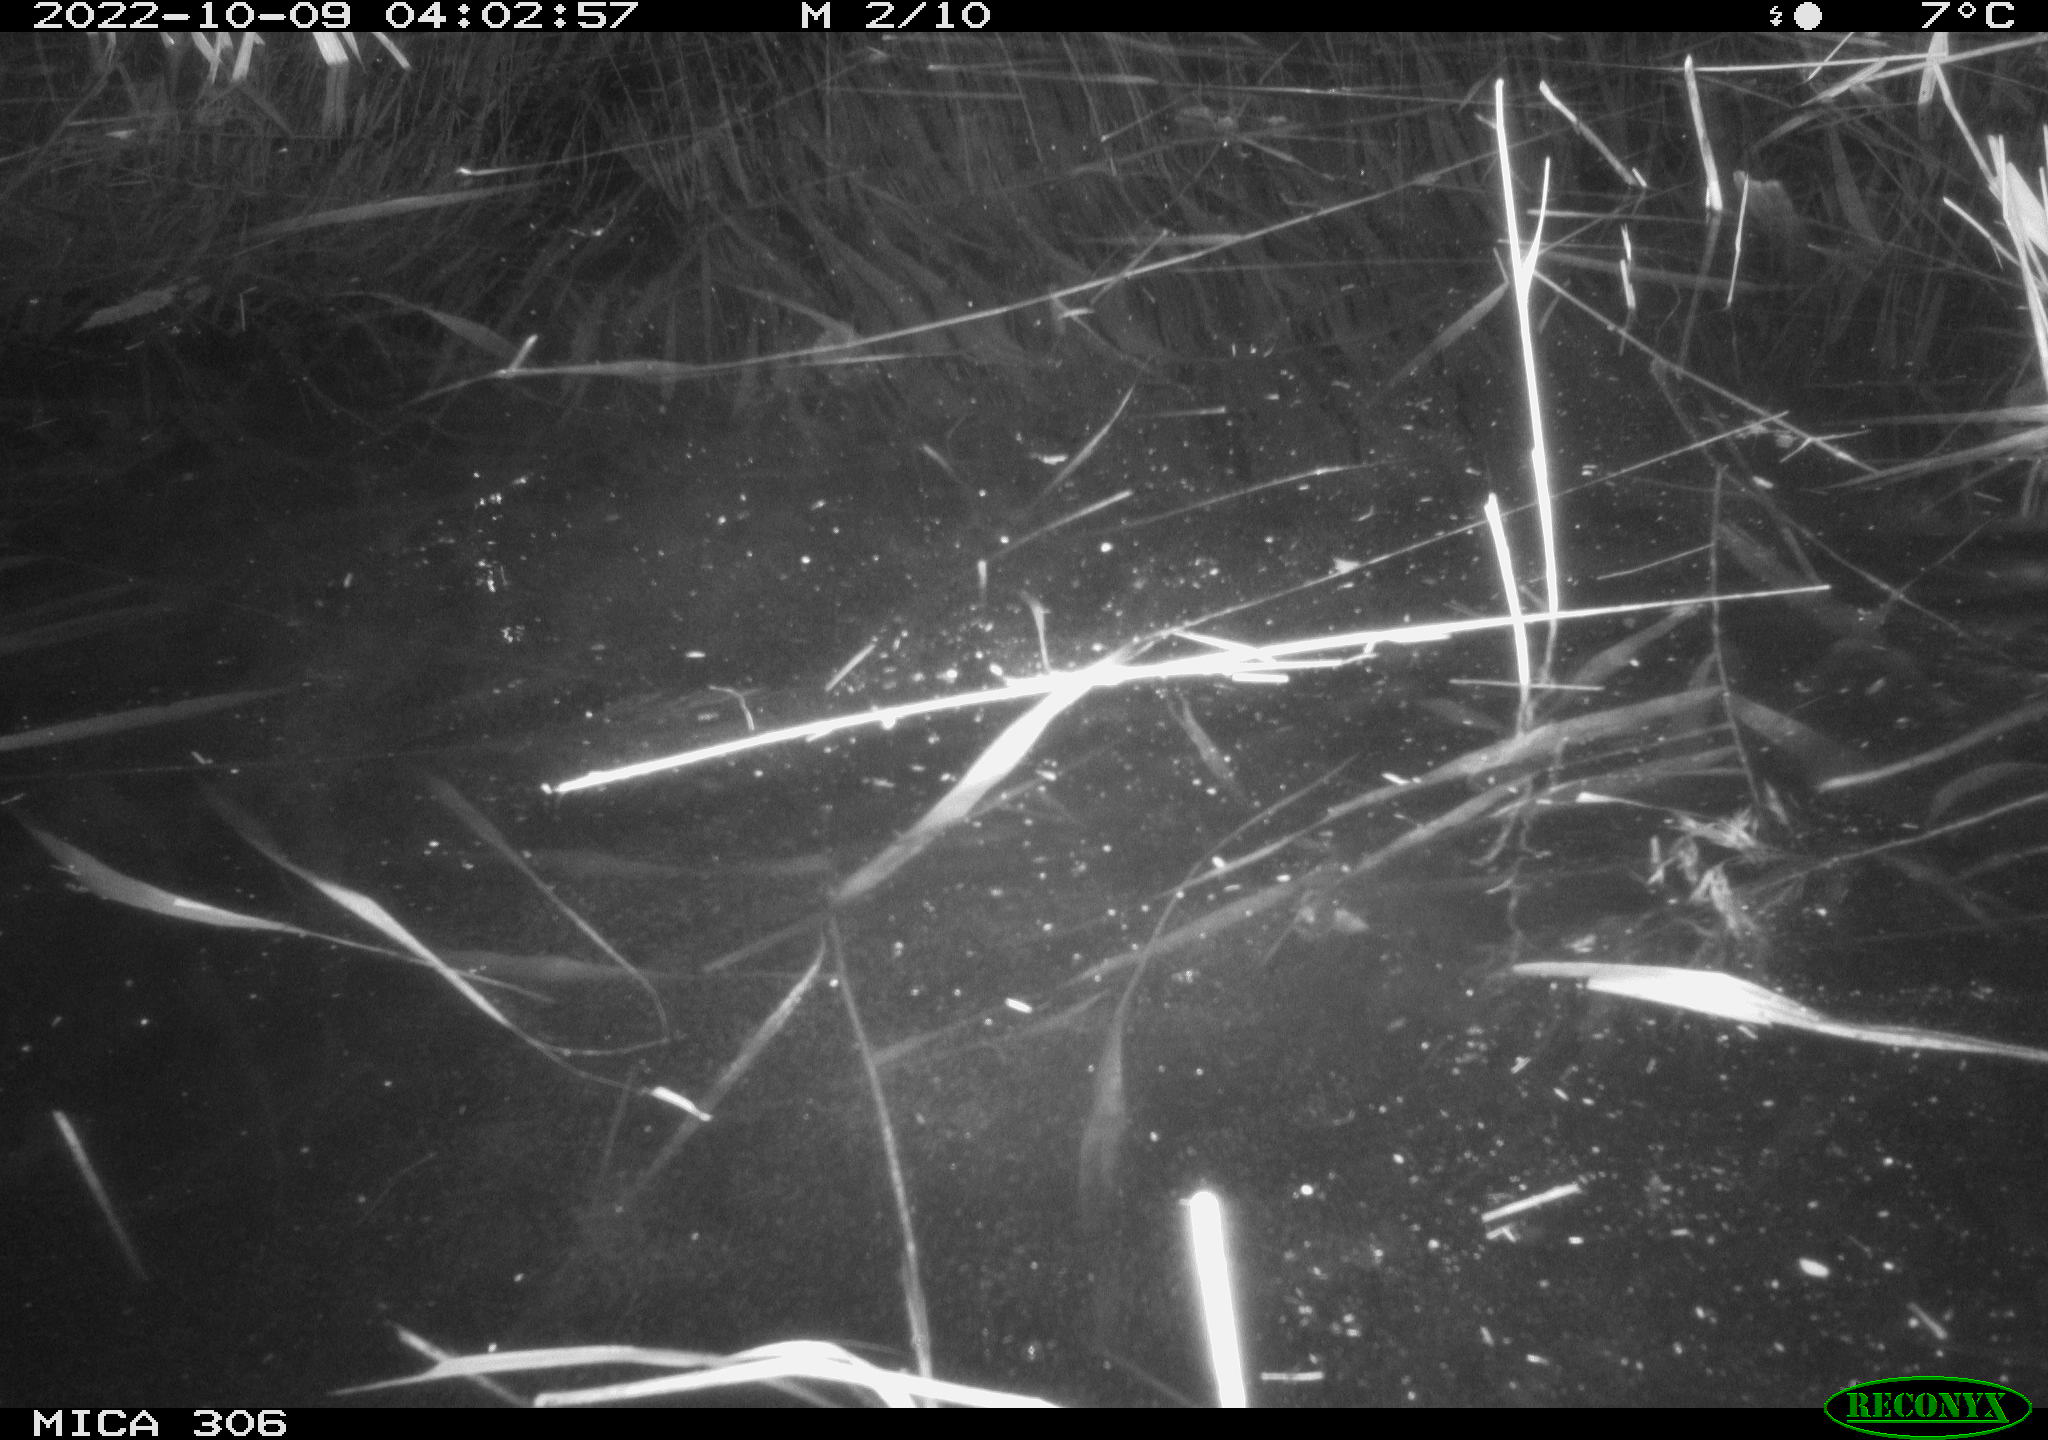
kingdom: Animalia
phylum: Chordata
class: Mammalia
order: Rodentia
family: Muridae
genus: Rattus
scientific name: Rattus norvegicus
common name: Brown rat
